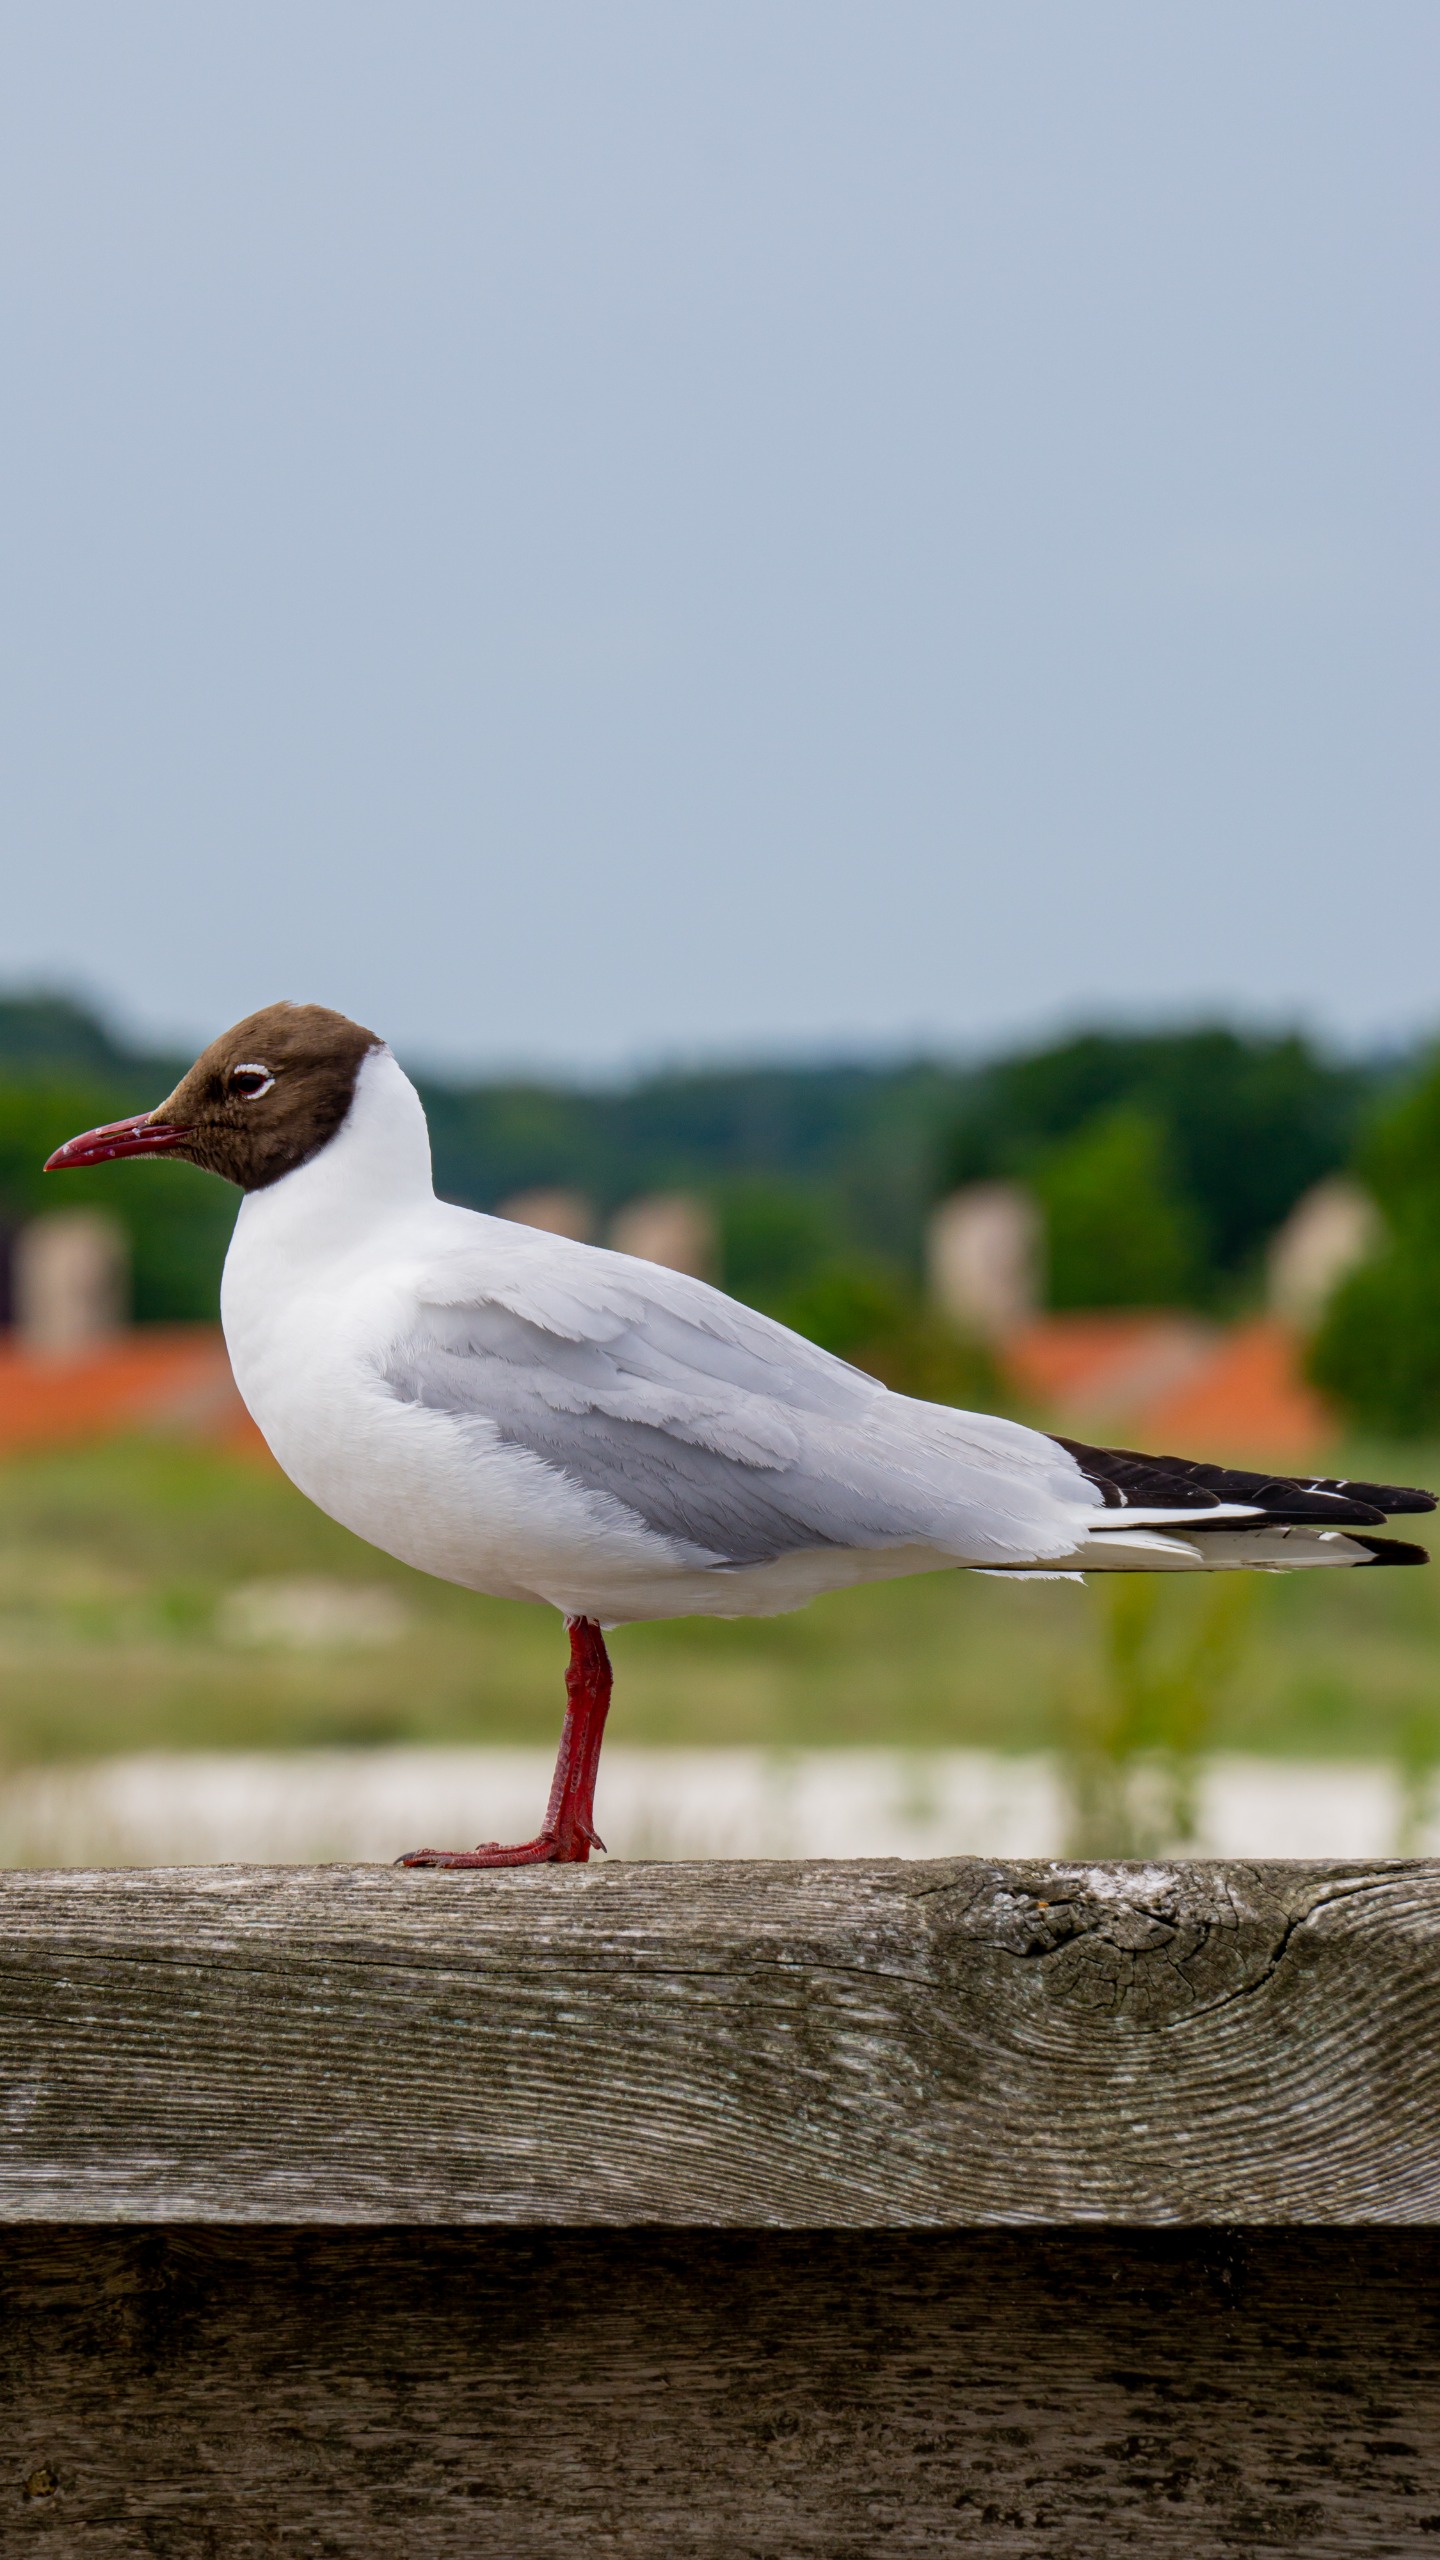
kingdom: Animalia
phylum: Chordata
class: Aves
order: Charadriiformes
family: Laridae
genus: Chroicocephalus
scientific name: Chroicocephalus ridibundus
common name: Hættemåge
